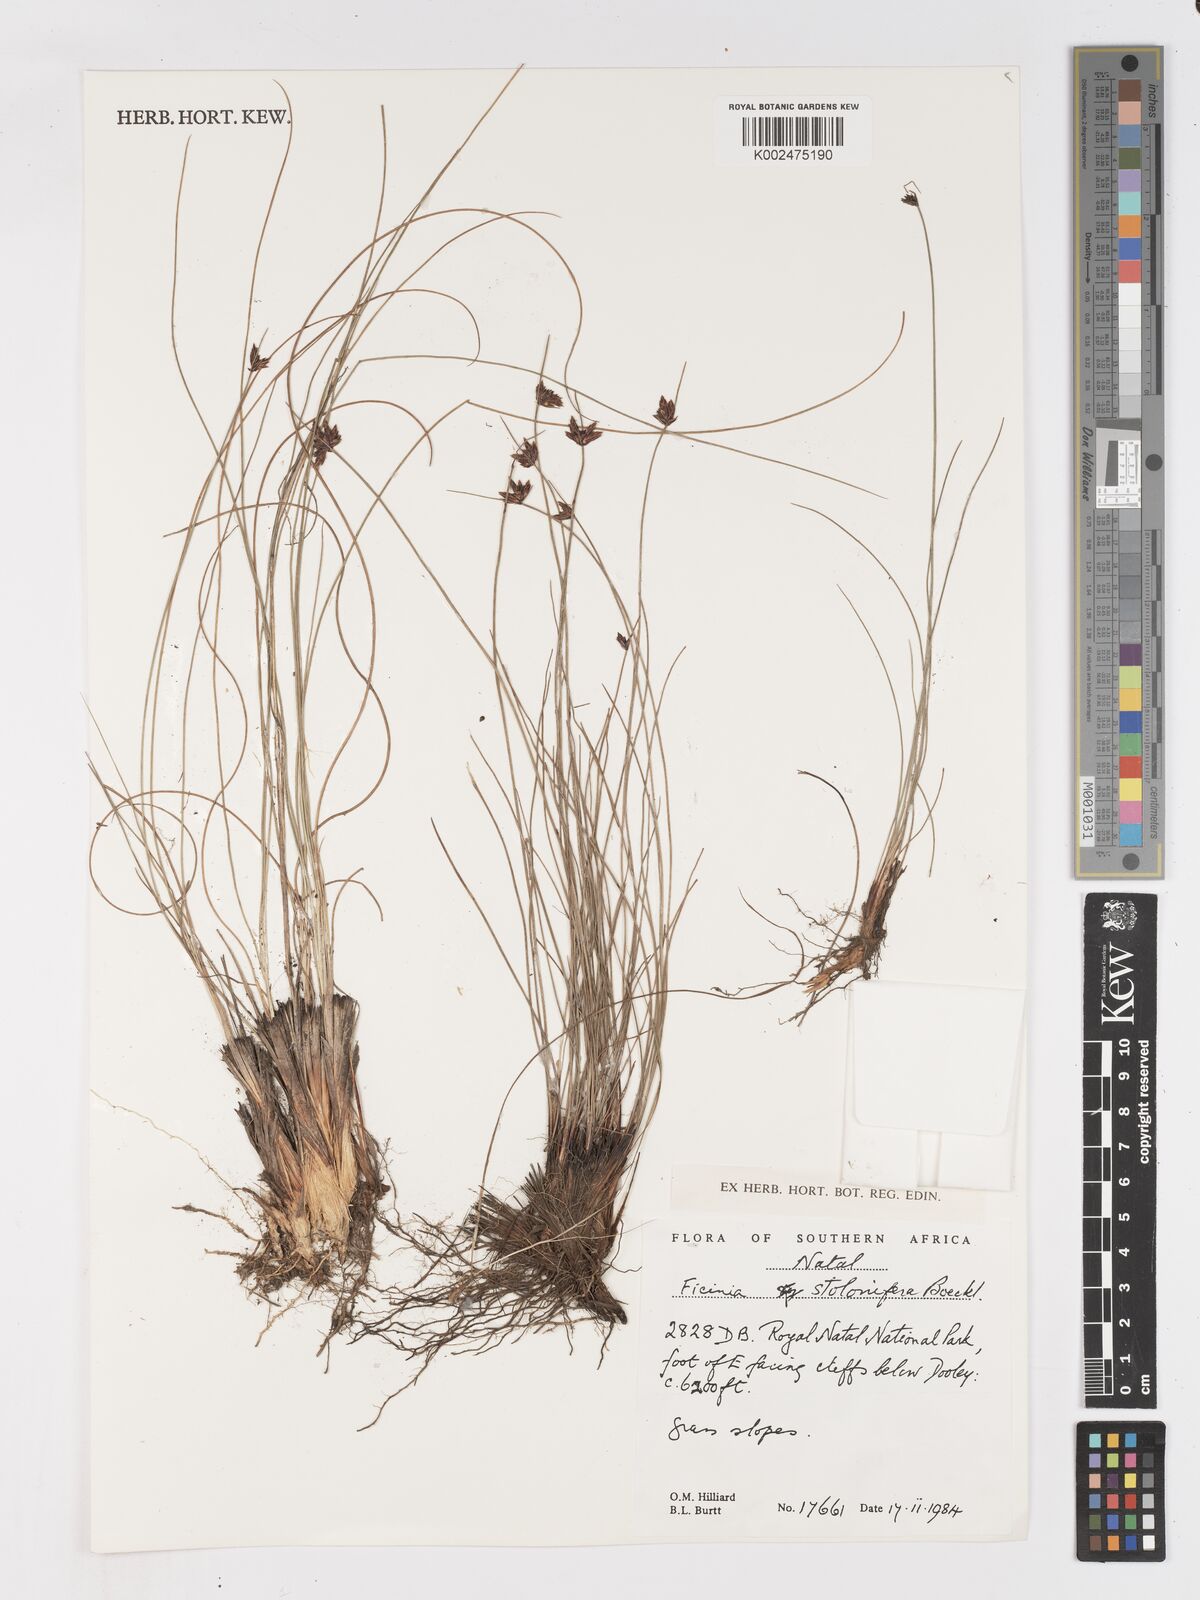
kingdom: Plantae
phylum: Tracheophyta
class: Liliopsida
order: Poales
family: Cyperaceae
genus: Ficinia
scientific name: Ficinia stolonifera
